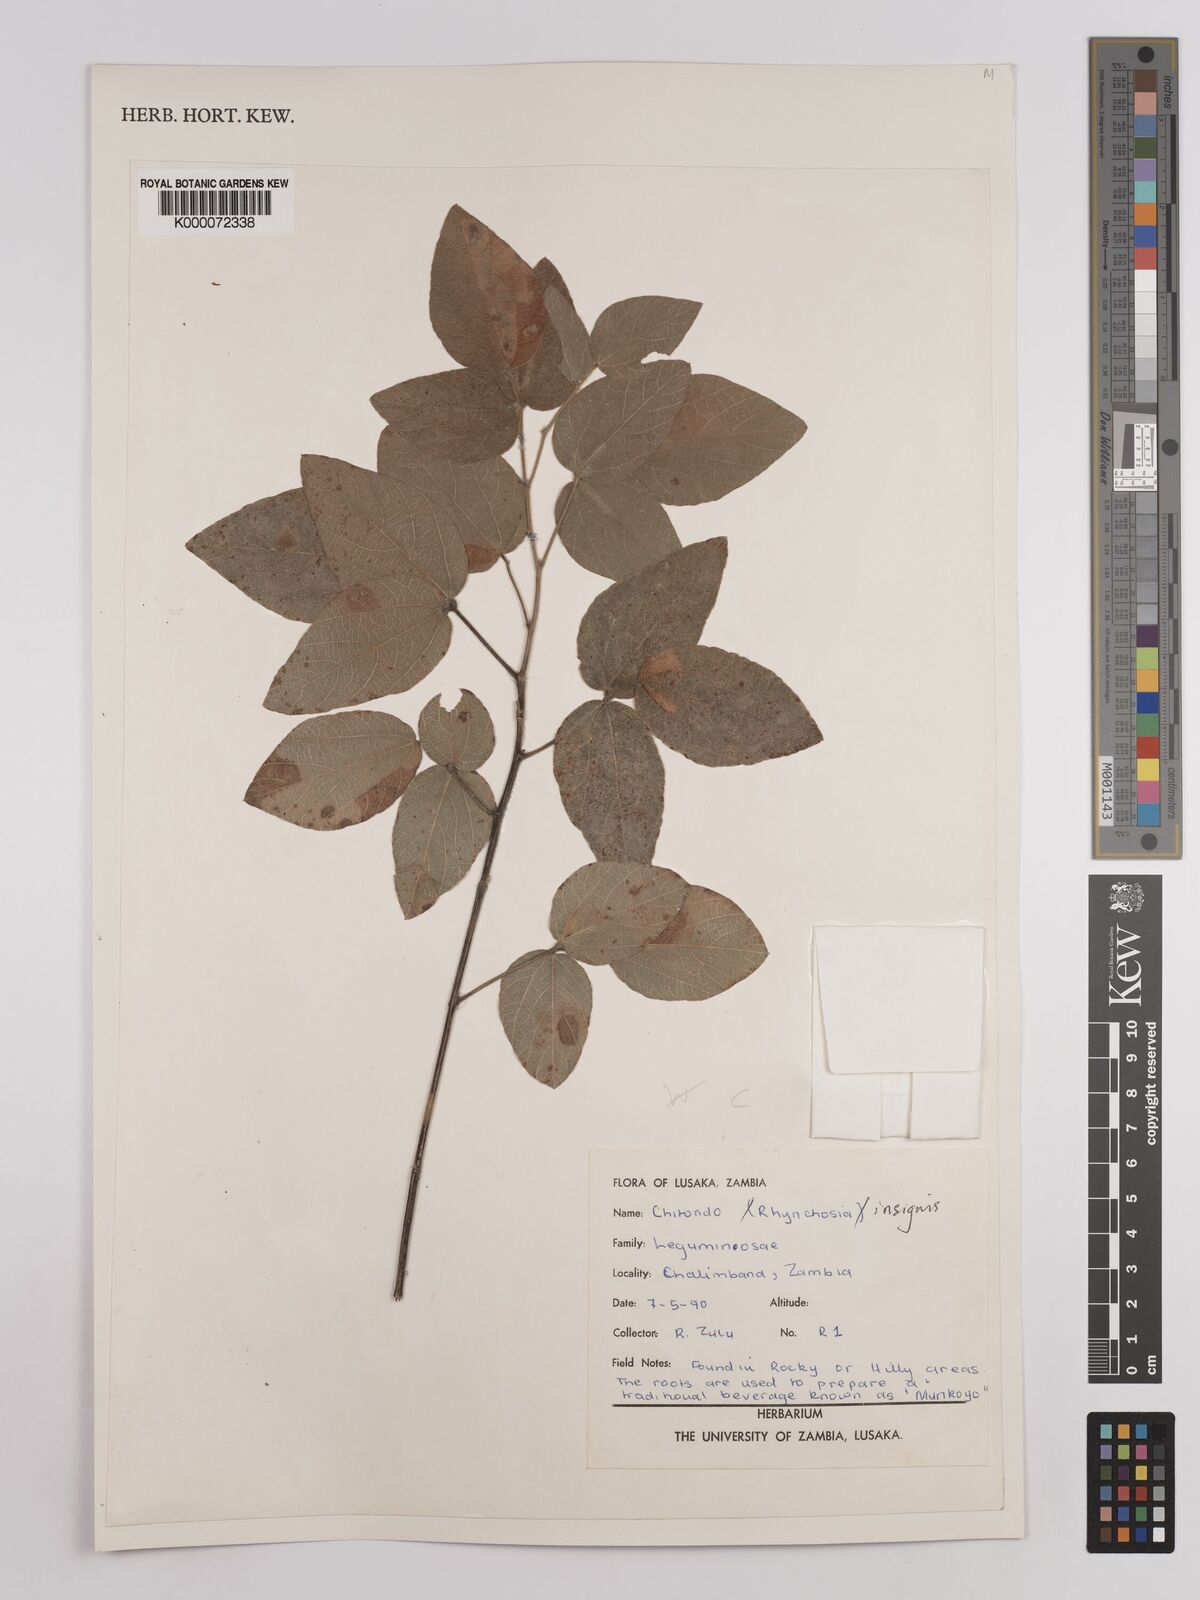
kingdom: Plantae
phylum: Tracheophyta
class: Magnoliopsida
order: Fabales
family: Fabaceae
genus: Rhynchosia
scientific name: Rhynchosia insignis
